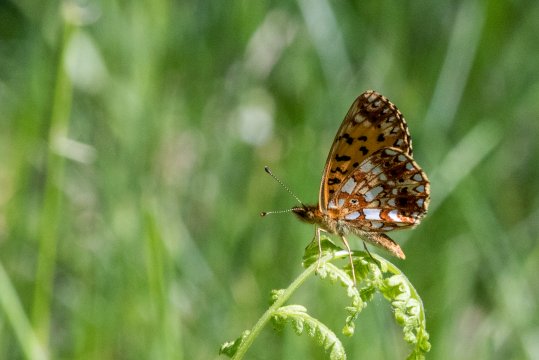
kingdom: Animalia
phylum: Arthropoda
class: Insecta
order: Lepidoptera
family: Nymphalidae
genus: Boloria
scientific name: Boloria selene
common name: Silver-bordered Fritillary
